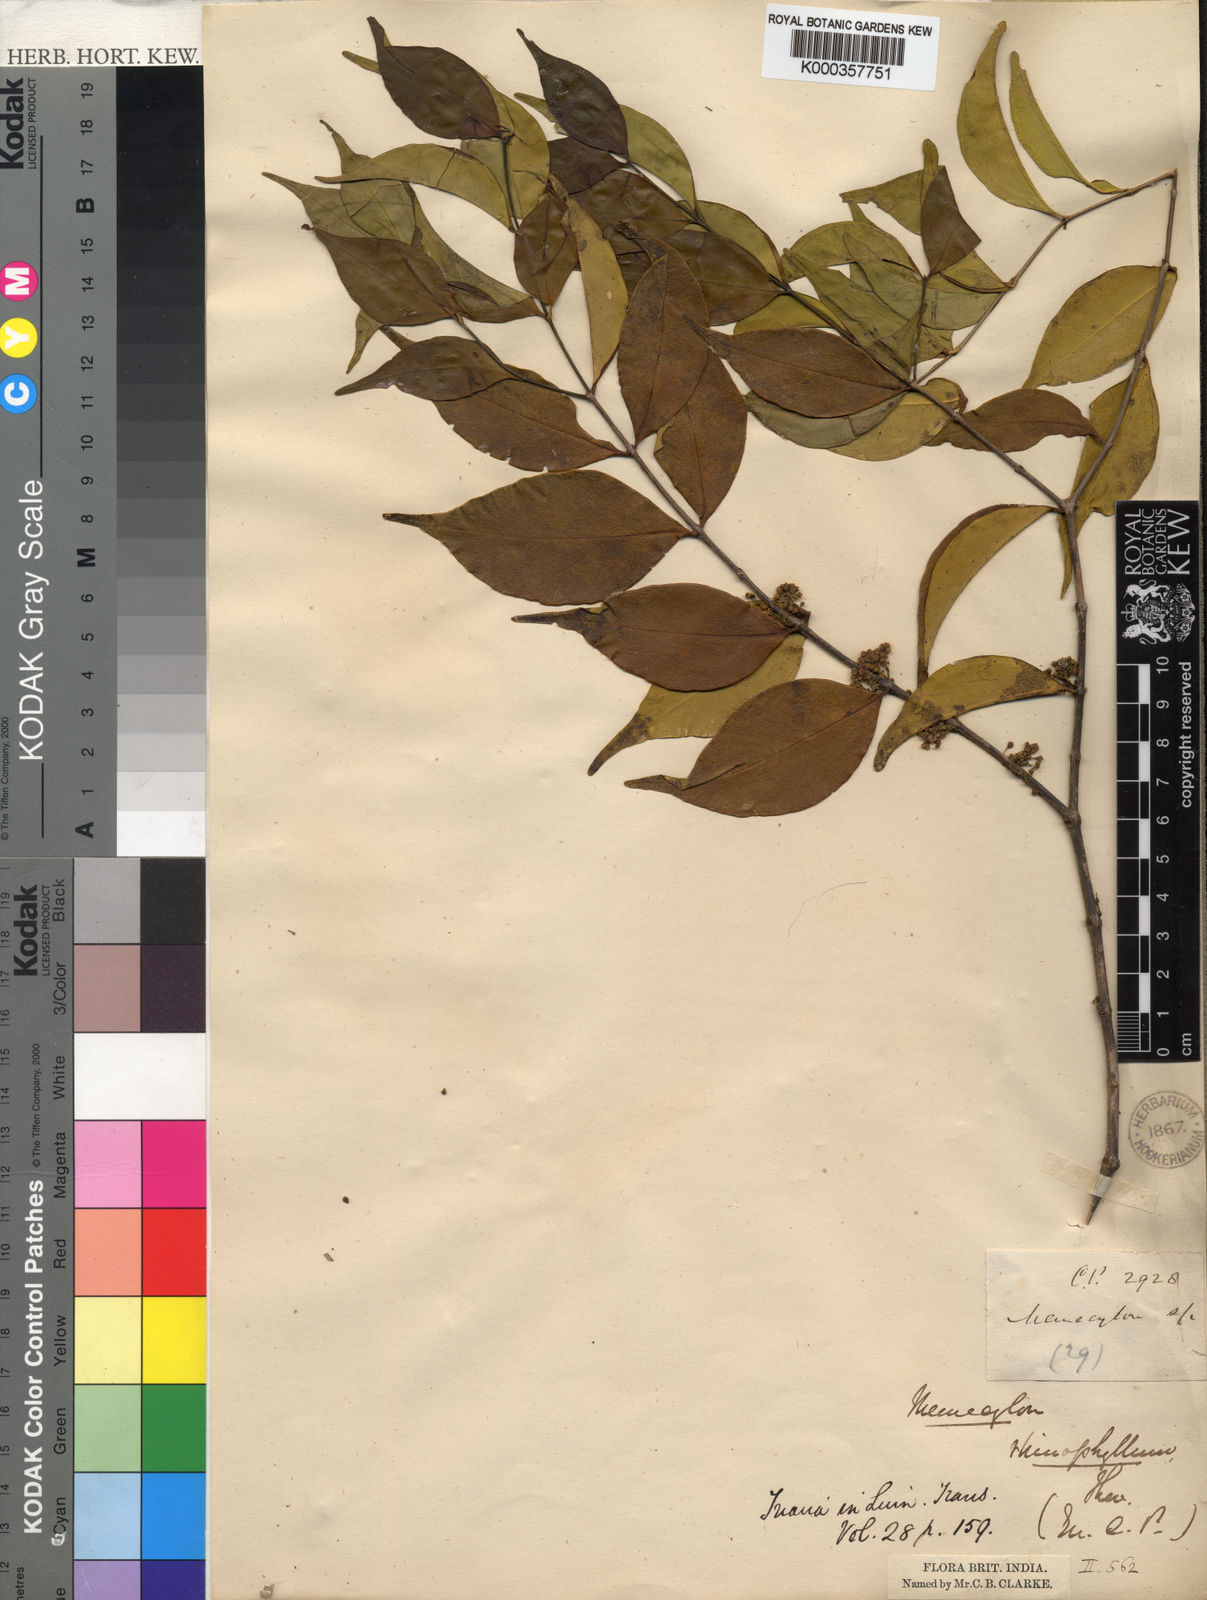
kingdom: Plantae
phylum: Tracheophyta
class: Magnoliopsida
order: Myrtales
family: Melastomataceae
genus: Memecylon
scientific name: Memecylon rhinophyllum
